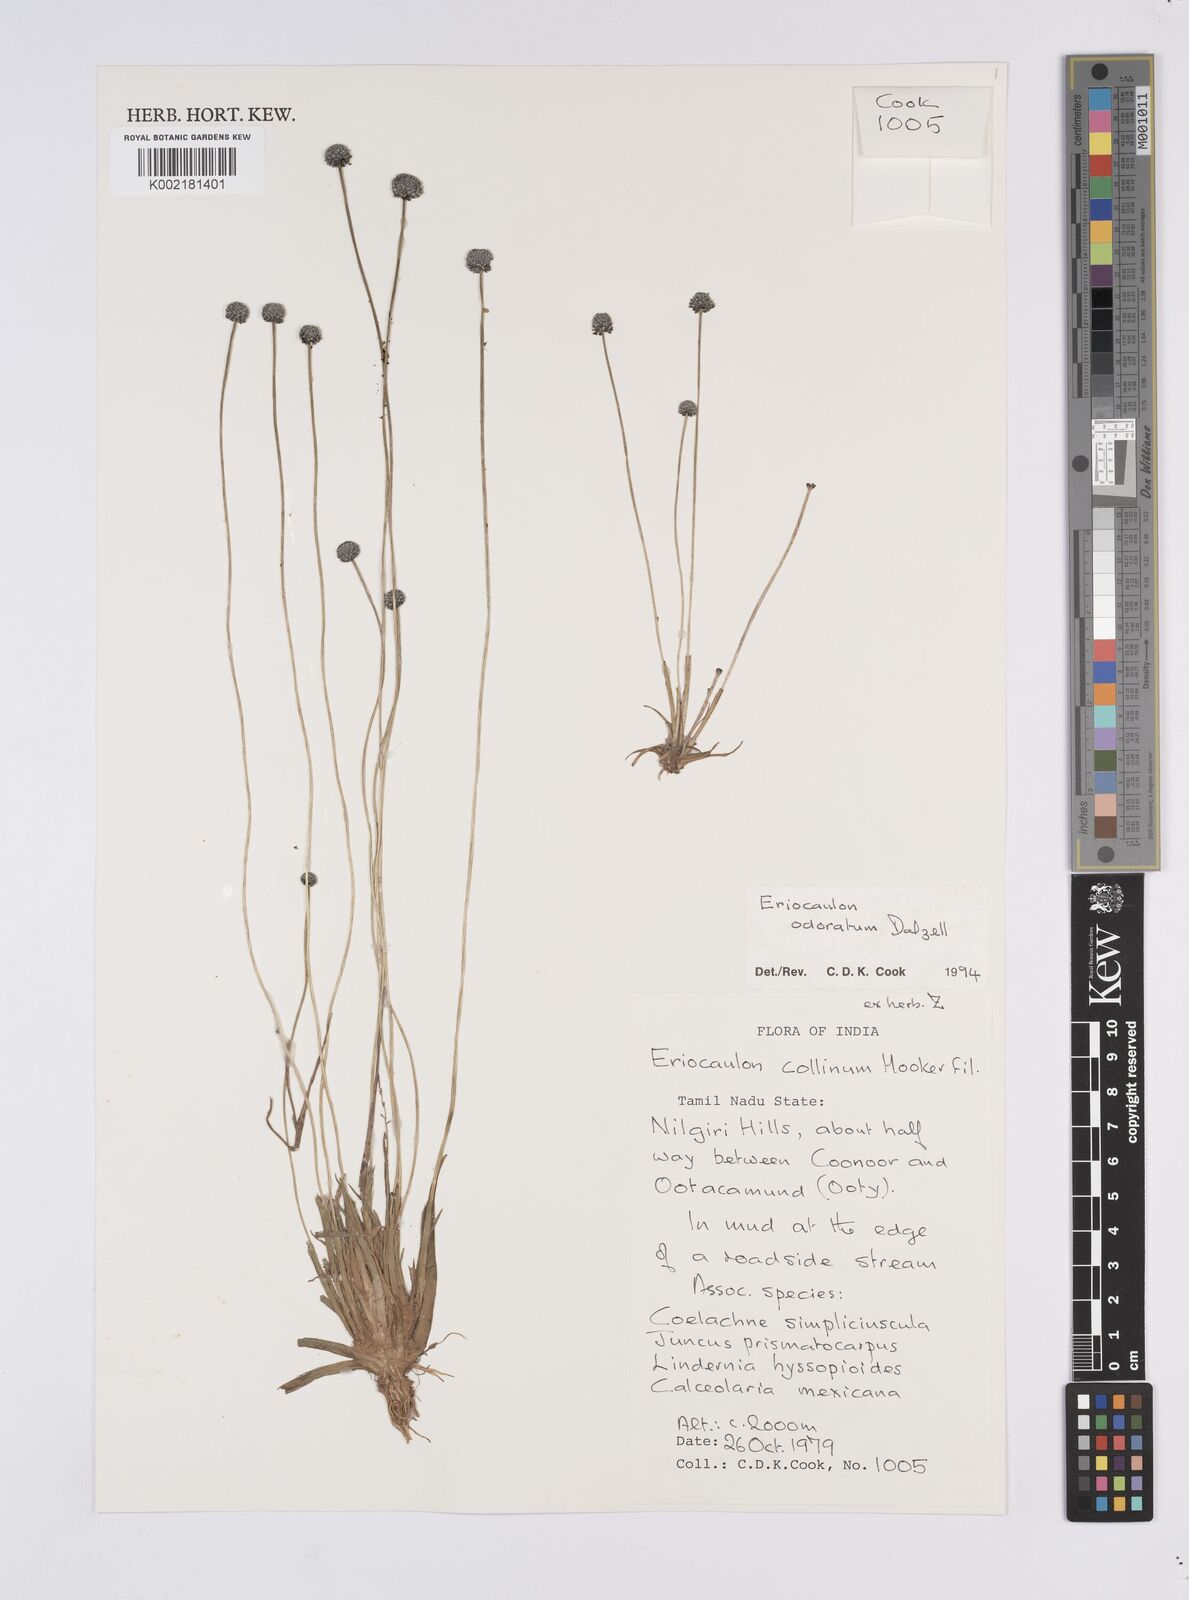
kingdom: Plantae
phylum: Tracheophyta
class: Liliopsida
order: Poales
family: Eriocaulaceae
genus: Eriocaulon
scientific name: Eriocaulon odoratum
